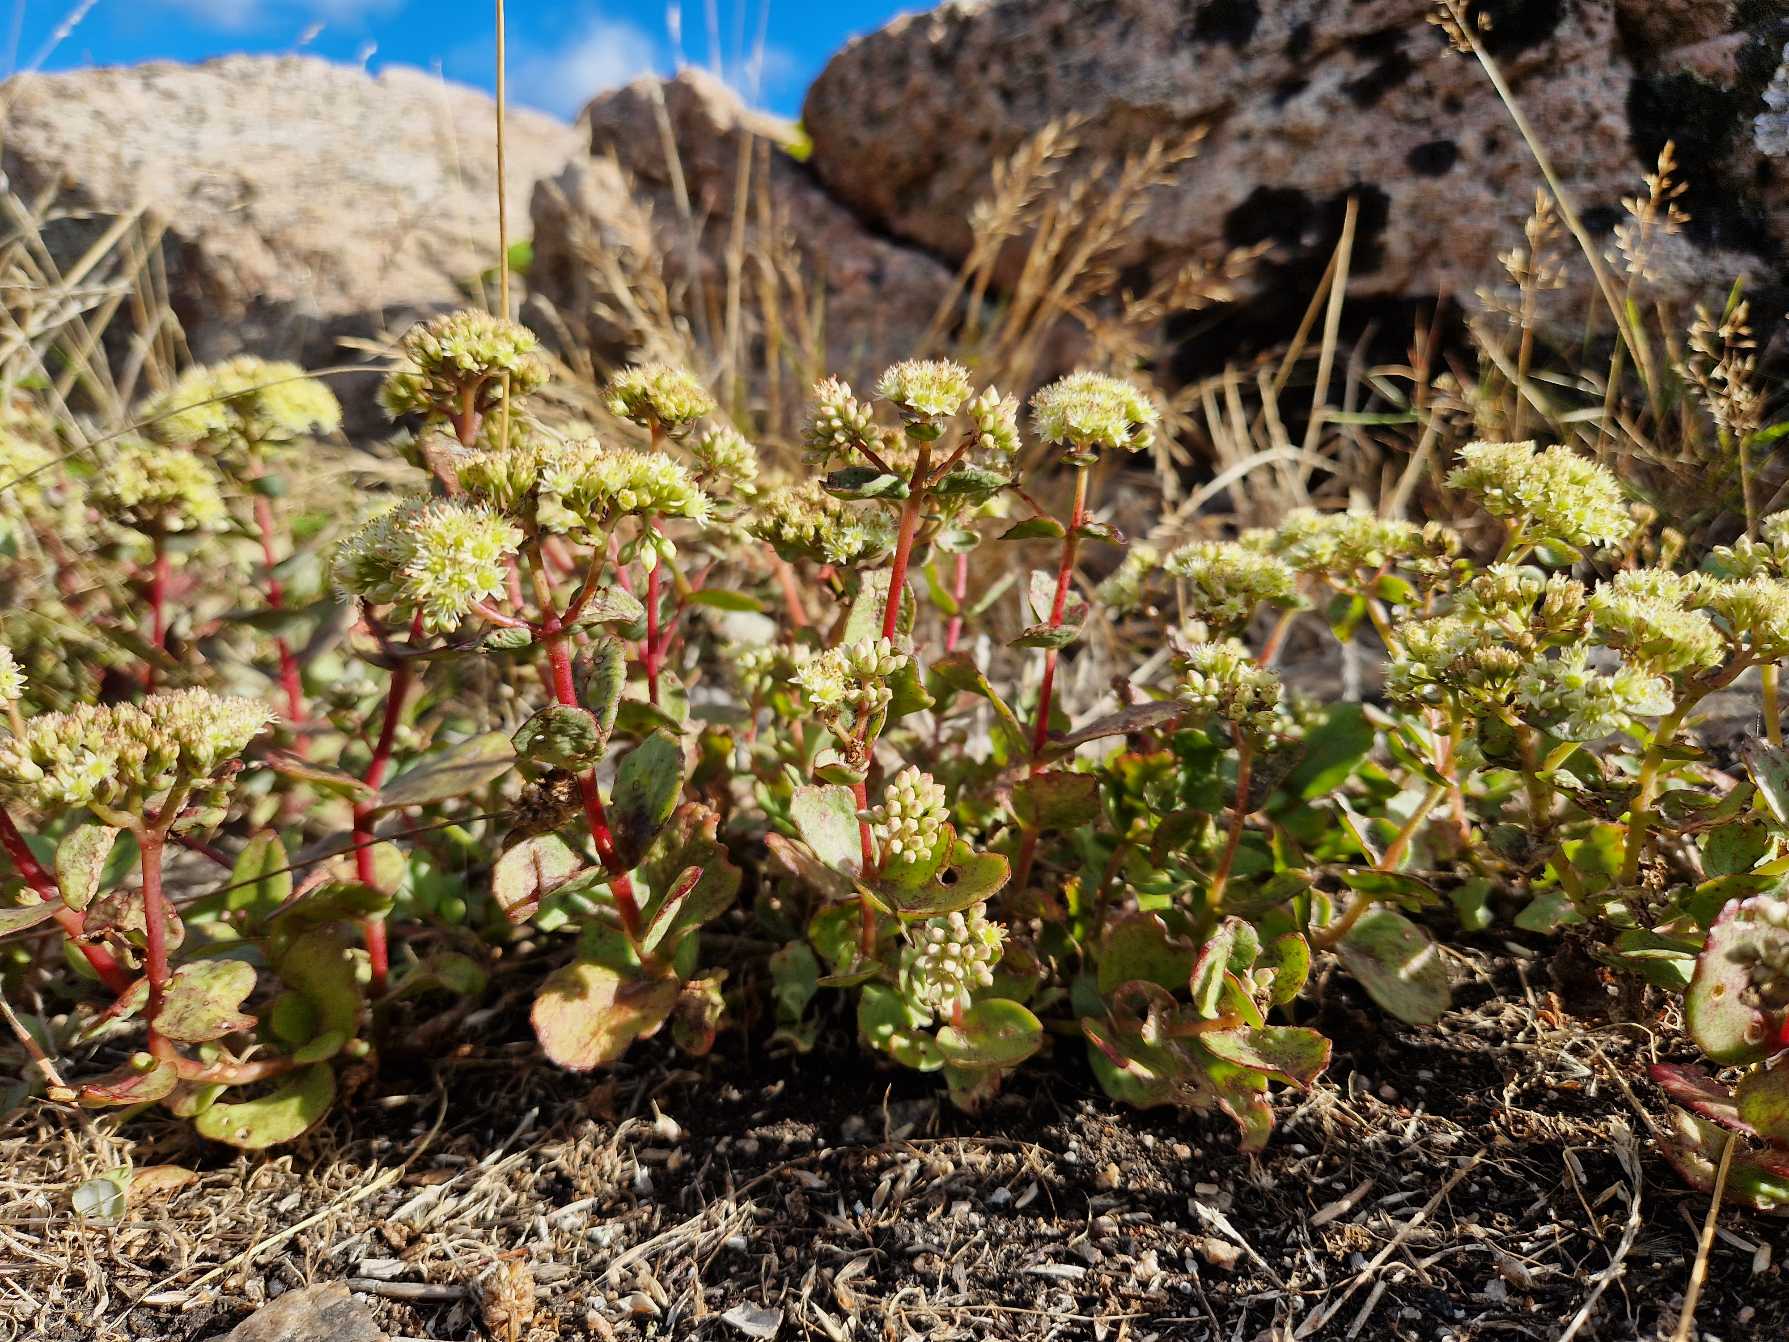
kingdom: Plantae
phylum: Tracheophyta
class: Magnoliopsida
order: Saxifragales
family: Crassulaceae
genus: Hylotelephium
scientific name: Hylotelephium maximum
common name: Almindelig sankthansurt
